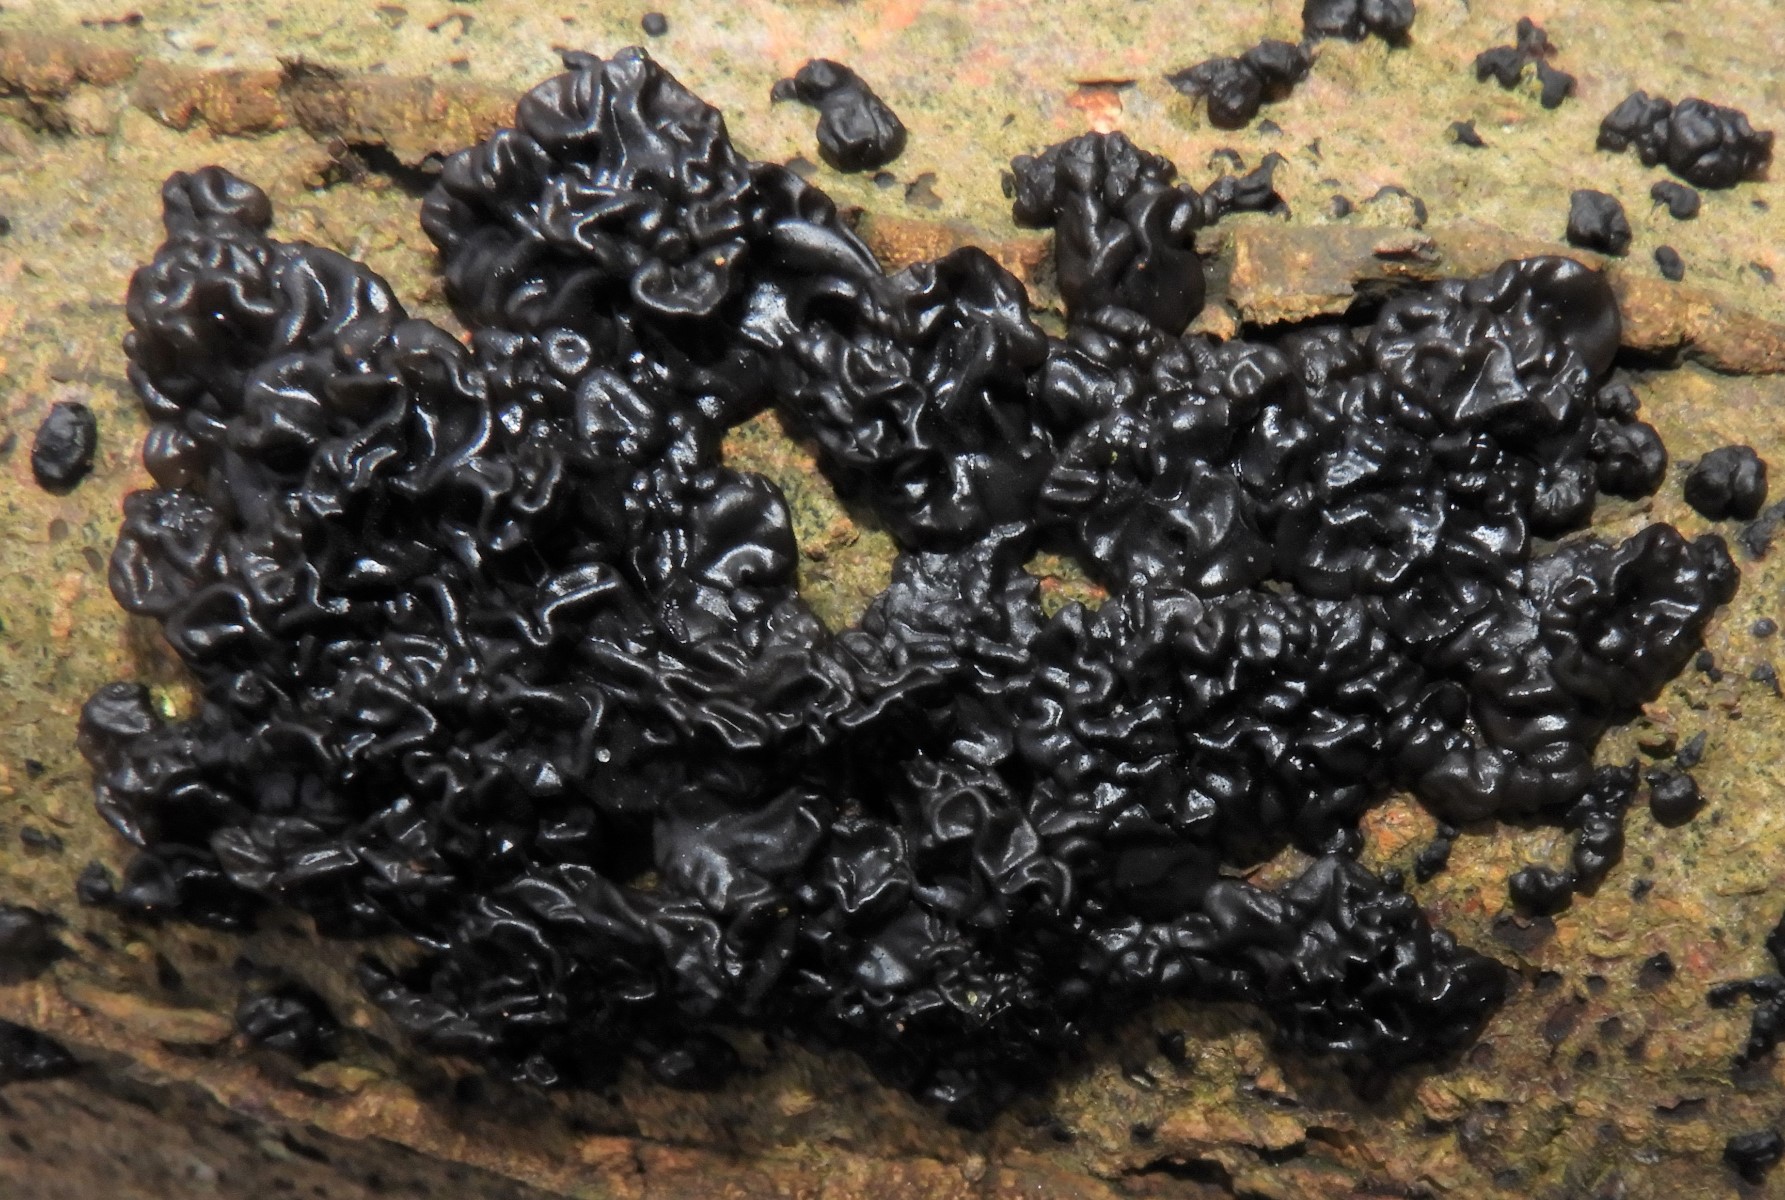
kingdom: Fungi
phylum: Basidiomycota
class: Agaricomycetes
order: Auriculariales
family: Auriculariaceae
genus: Exidia
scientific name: Exidia nigricans
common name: almindelig bævretop
